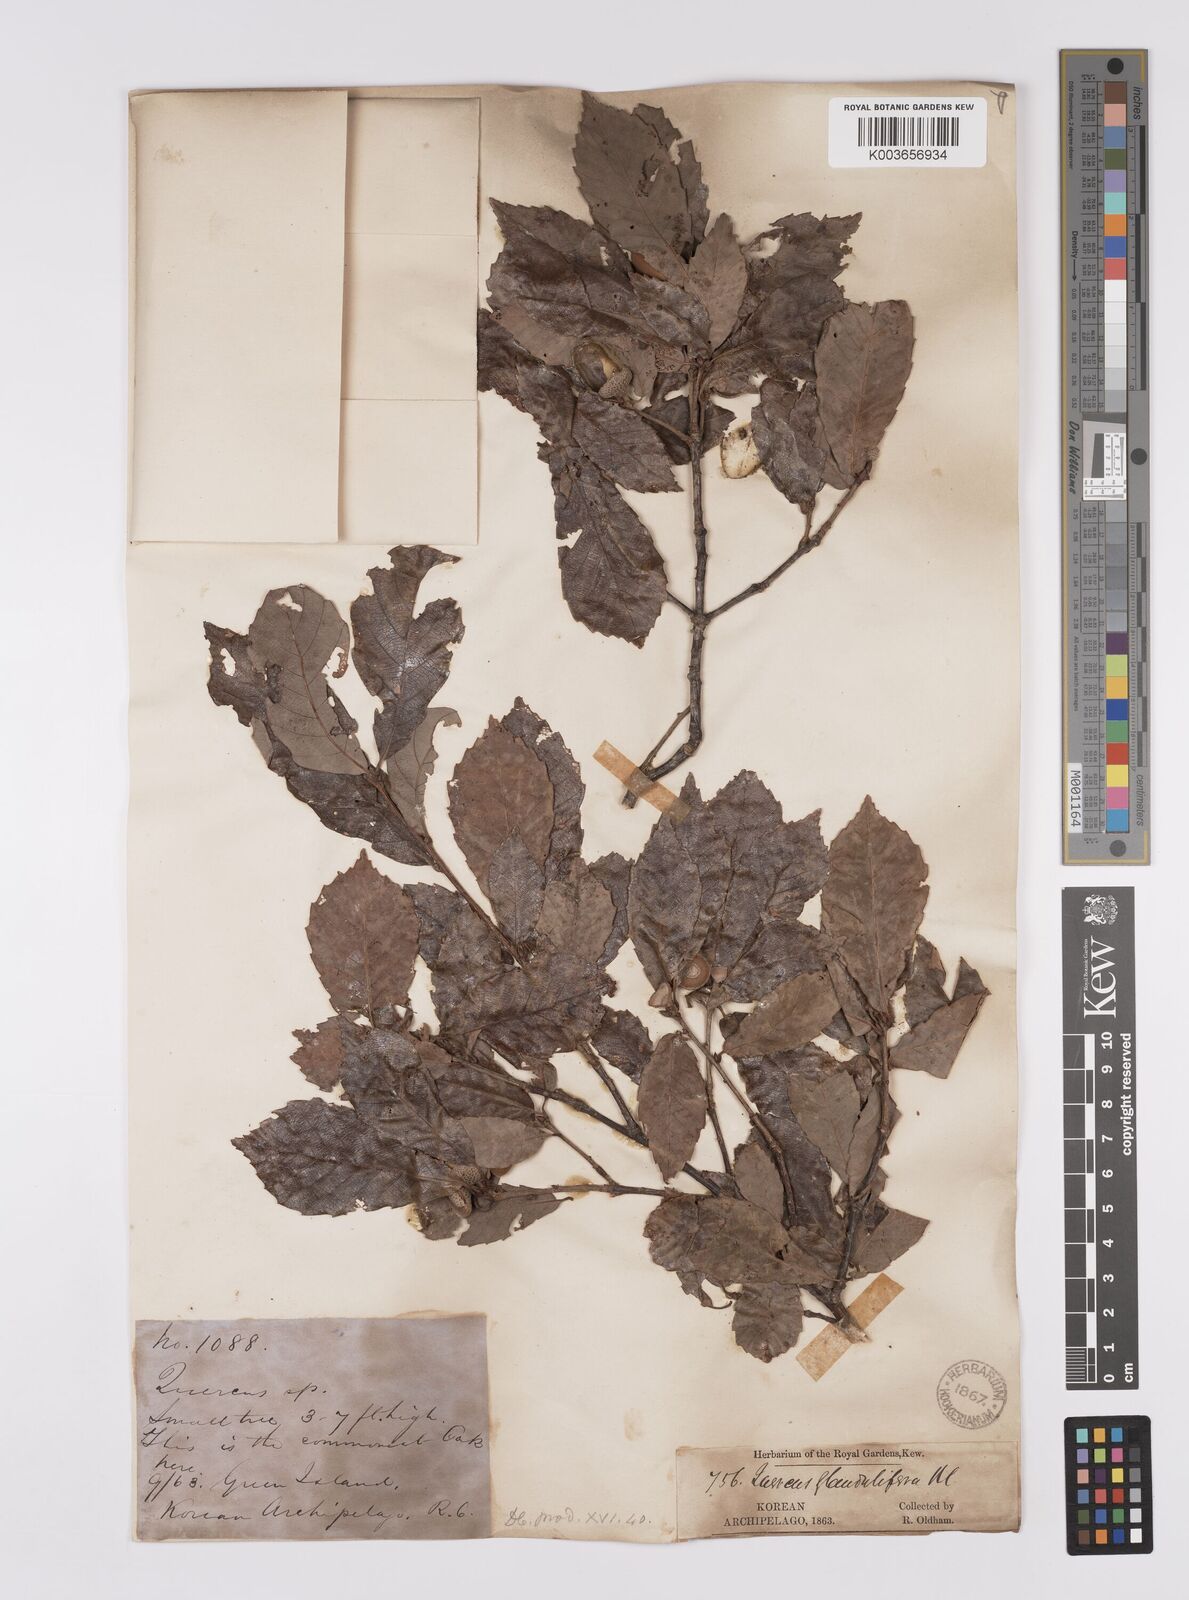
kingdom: Plantae
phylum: Tracheophyta
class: Magnoliopsida
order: Fagales
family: Fagaceae
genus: Quercus
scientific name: Quercus serrata
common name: Bao li
